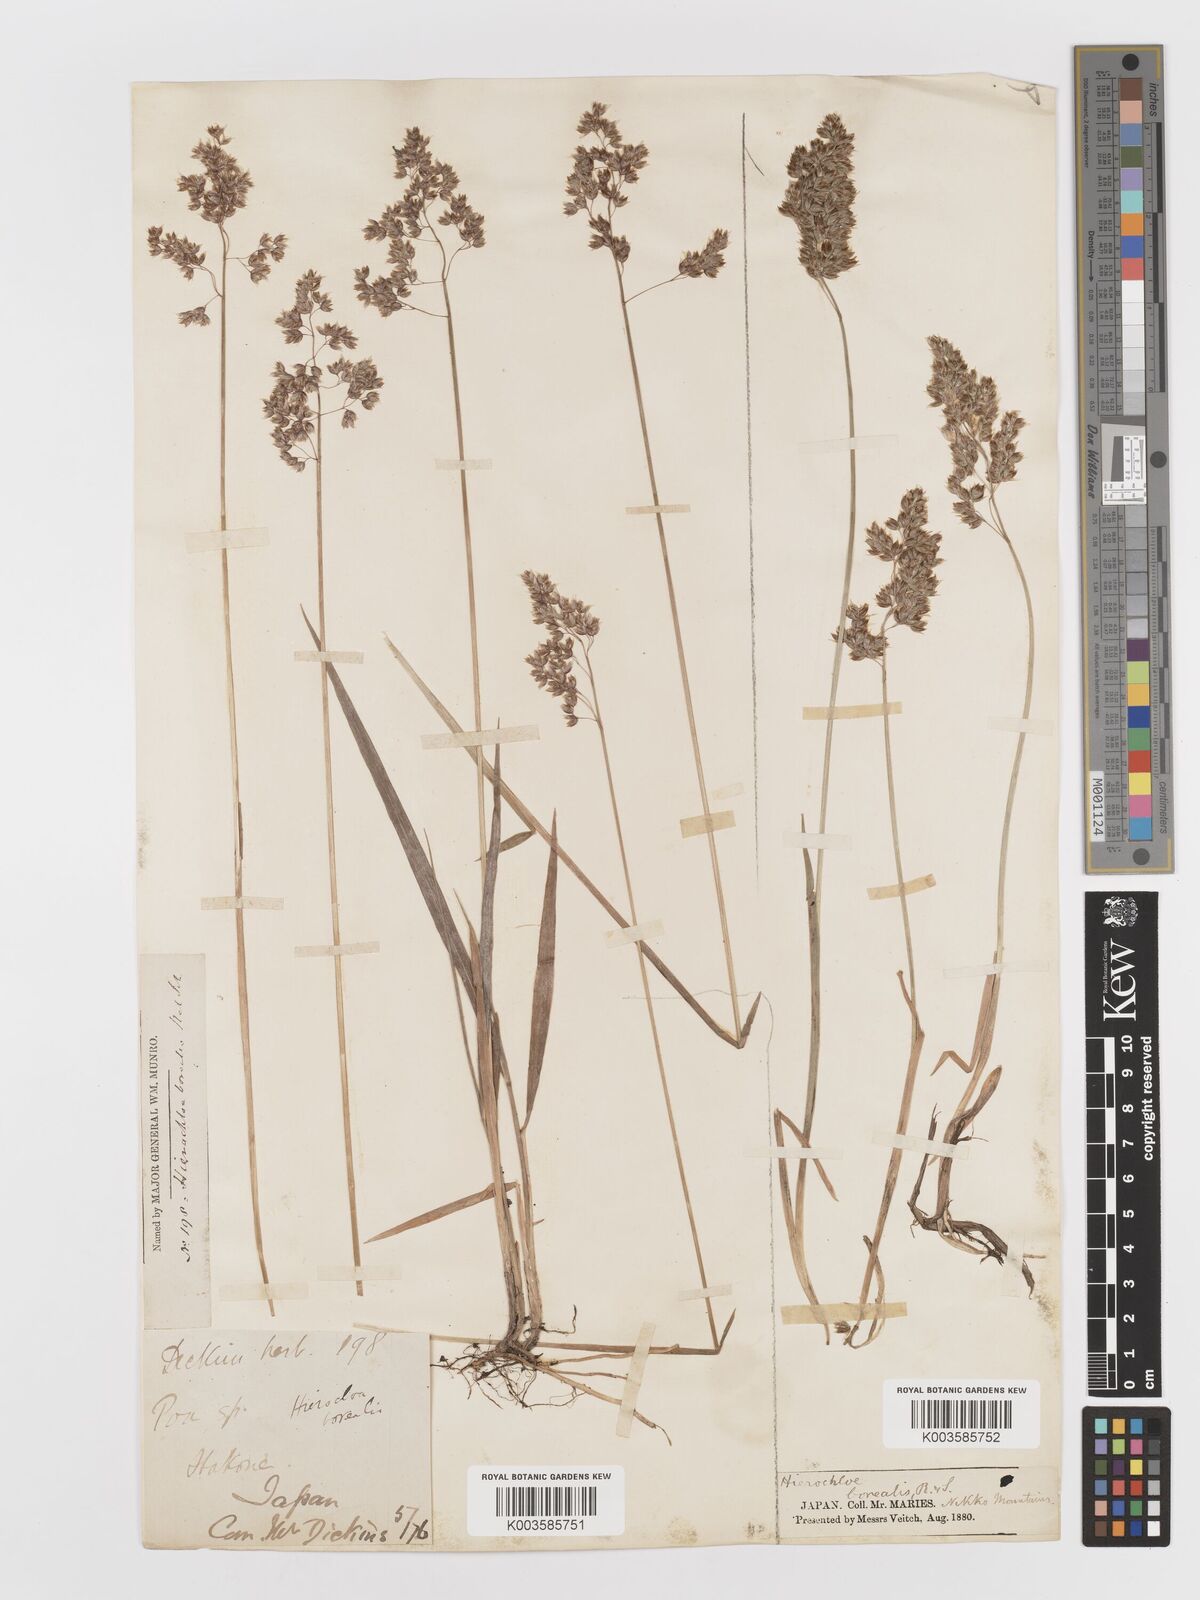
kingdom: Plantae
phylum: Tracheophyta
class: Liliopsida
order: Poales
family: Poaceae
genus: Anthoxanthum
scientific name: Anthoxanthum nitens
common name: Holy grass
